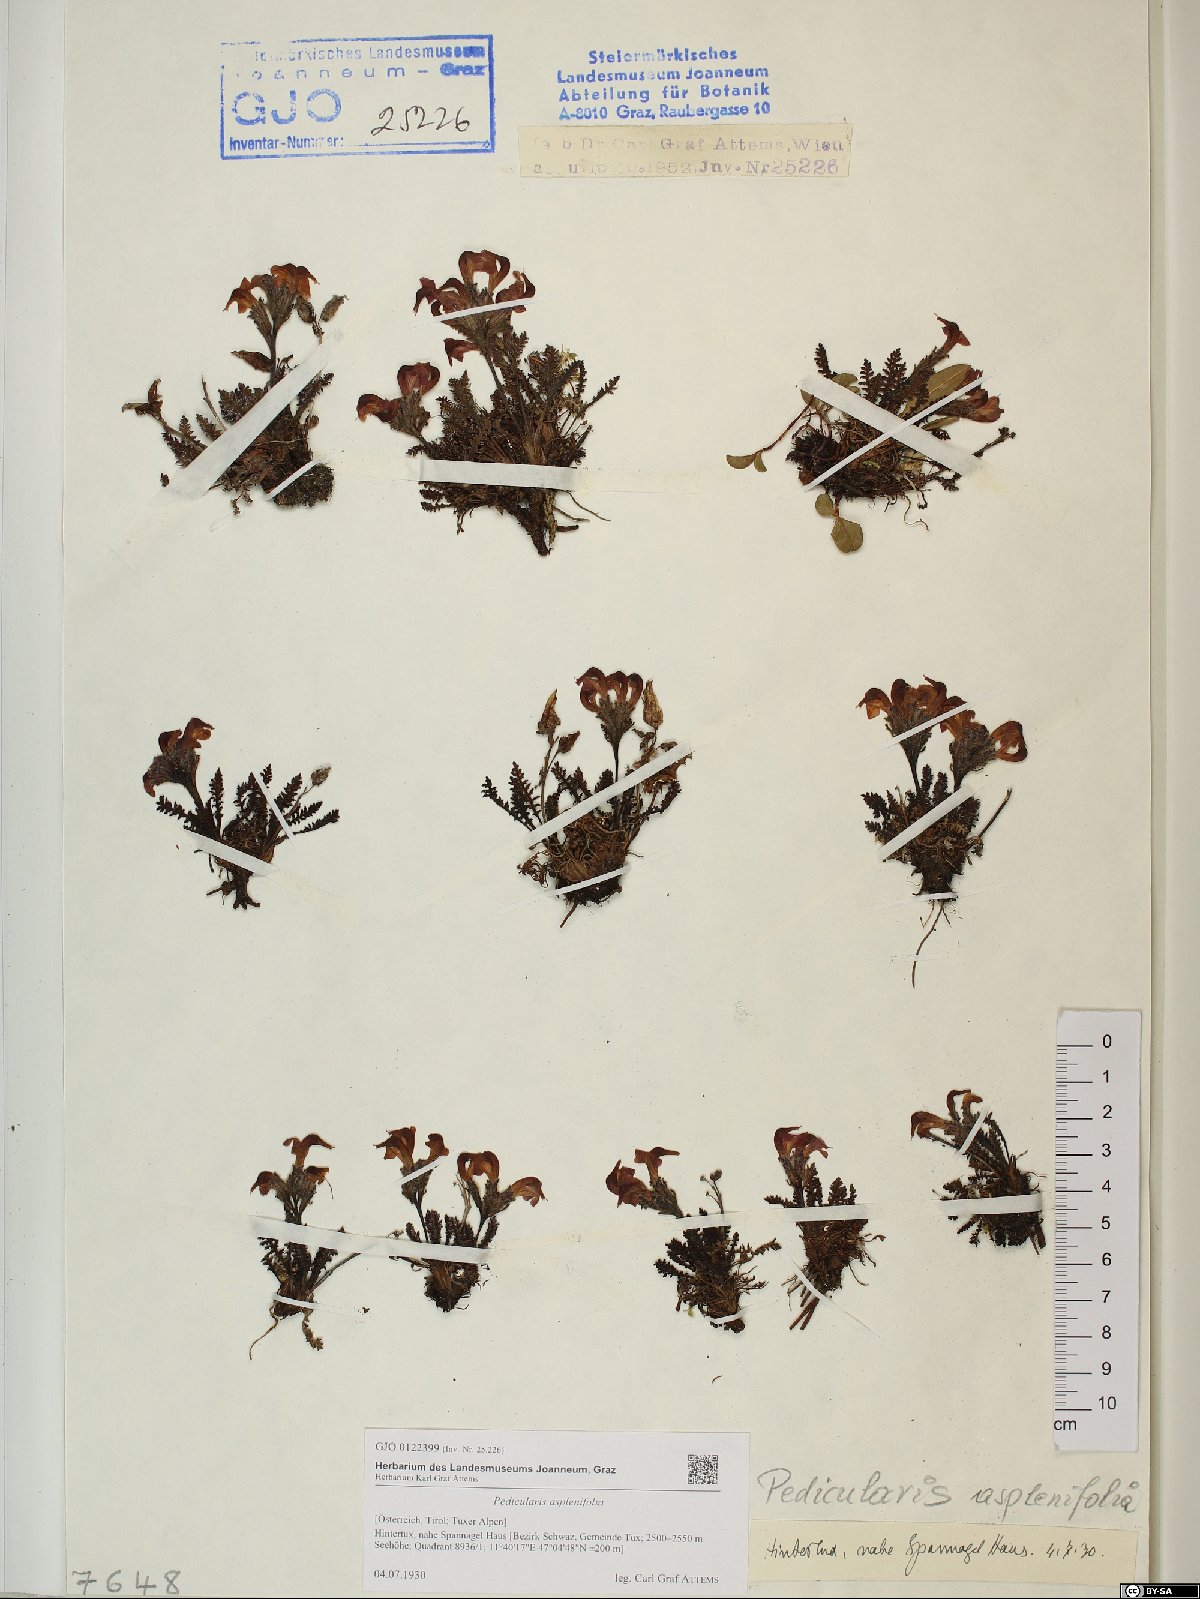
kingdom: Plantae
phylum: Tracheophyta
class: Magnoliopsida
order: Lamiales
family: Orobanchaceae
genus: Pedicularis
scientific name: Pedicularis asplenifolia
